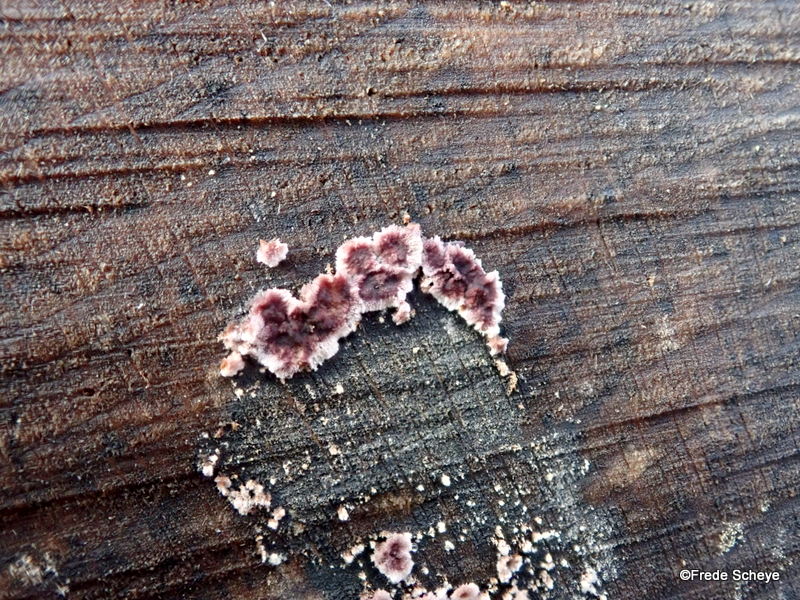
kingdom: Fungi
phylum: Basidiomycota
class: Agaricomycetes
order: Agaricales
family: Cyphellaceae
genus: Chondrostereum
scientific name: Chondrostereum purpureum
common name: purpurlædersvamp
